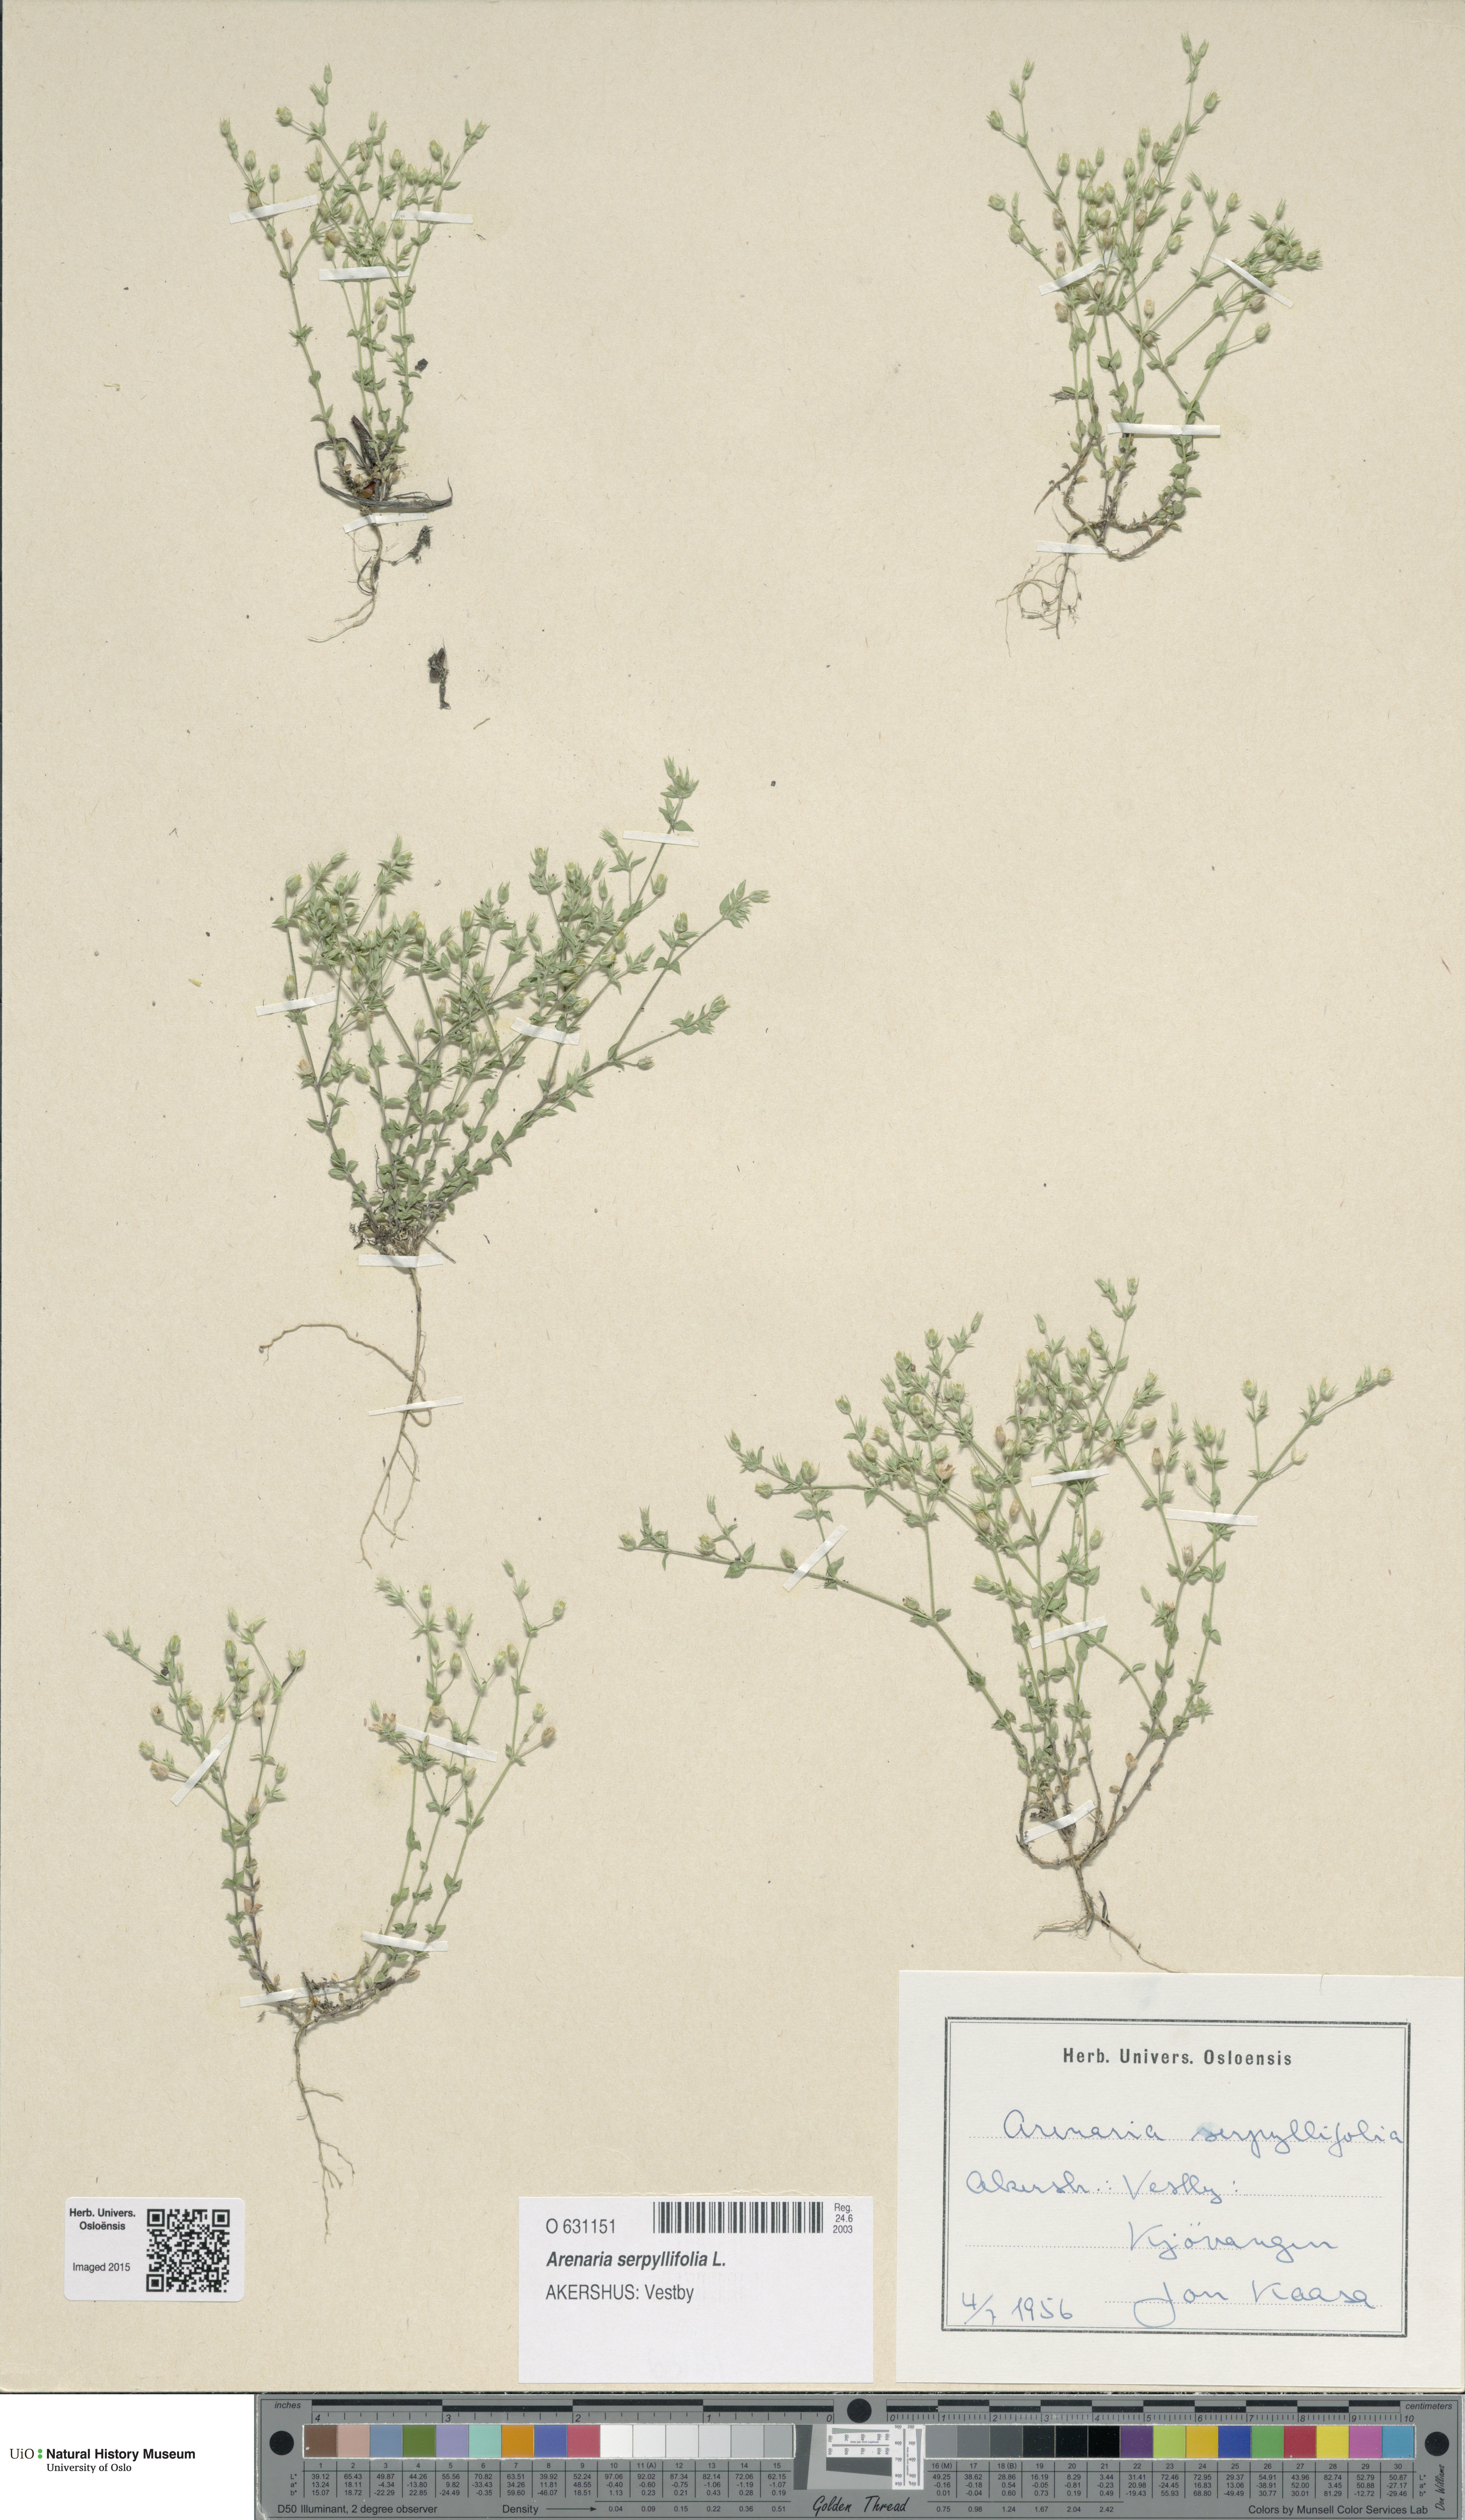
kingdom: Plantae
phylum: Tracheophyta
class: Magnoliopsida
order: Caryophyllales
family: Caryophyllaceae
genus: Arenaria
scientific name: Arenaria serpyllifolia
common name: Thyme-leaved sandwort
